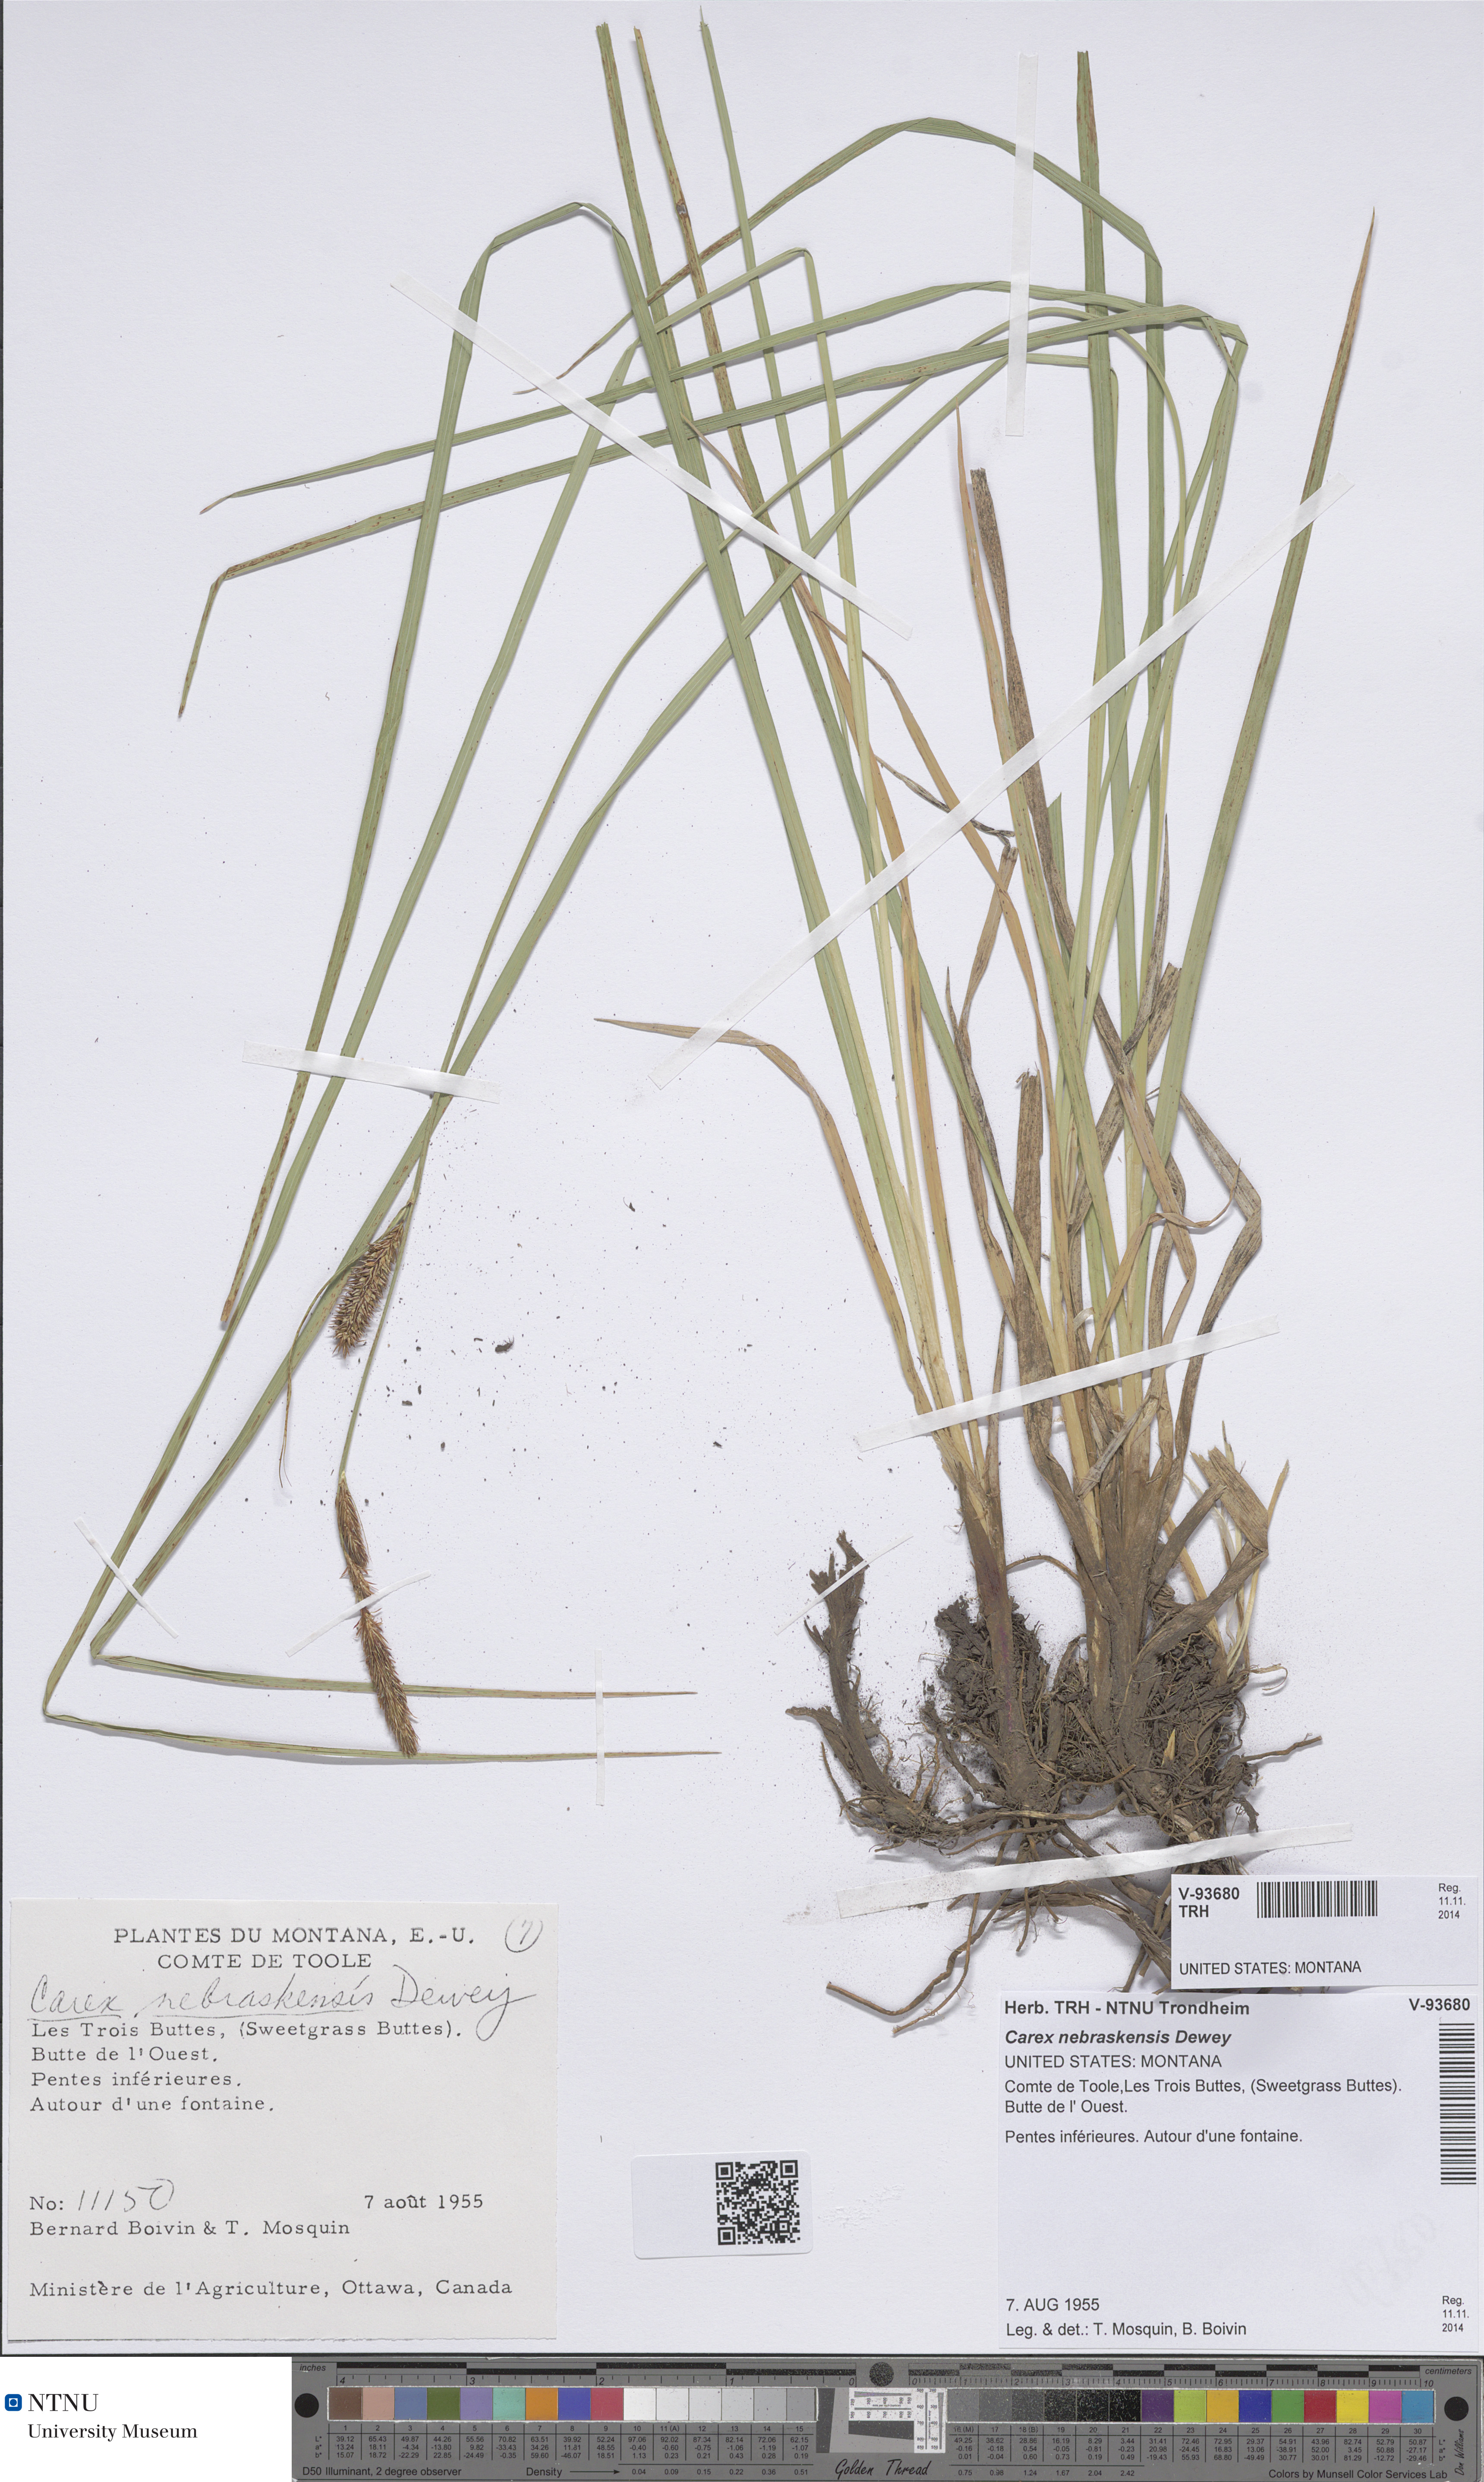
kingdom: Plantae
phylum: Tracheophyta
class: Liliopsida
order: Poales
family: Cyperaceae
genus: Carex
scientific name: Carex nebraskensis
